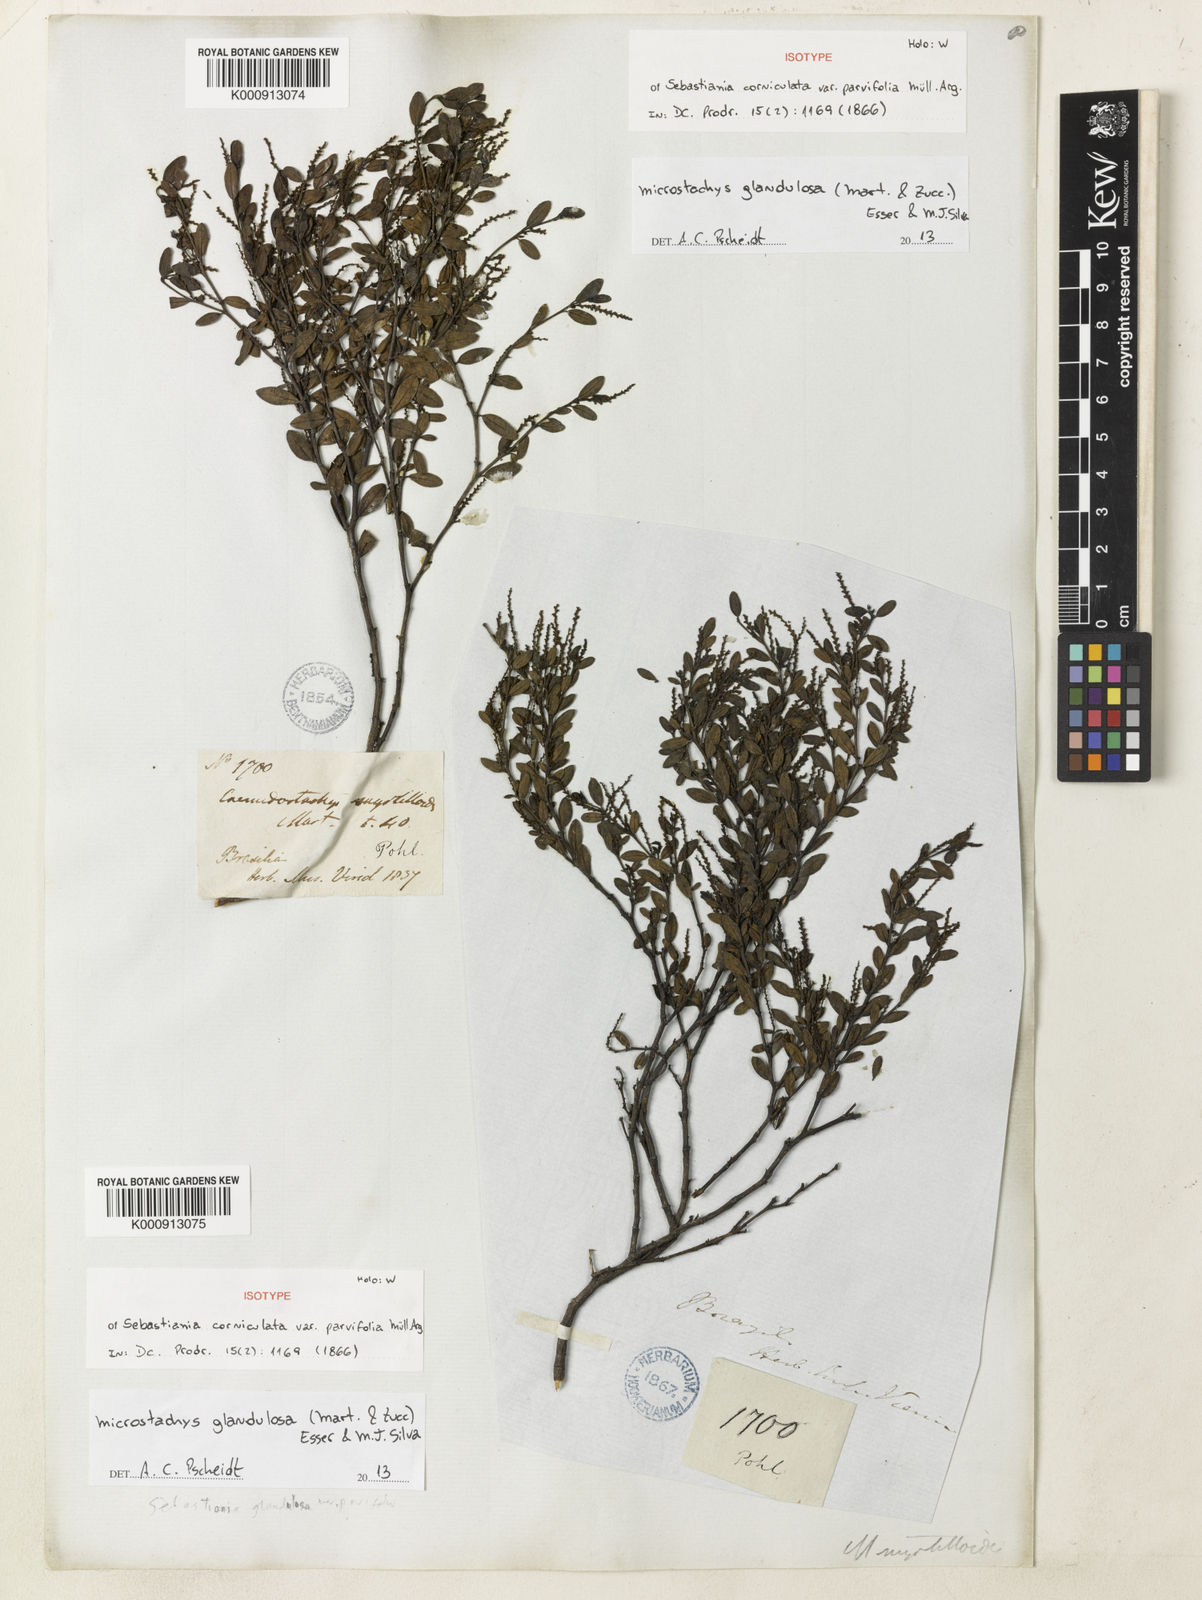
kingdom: Plantae
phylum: Tracheophyta
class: Magnoliopsida
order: Malpighiales
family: Euphorbiaceae
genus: Microstachys
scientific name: Microstachys glandulosa
